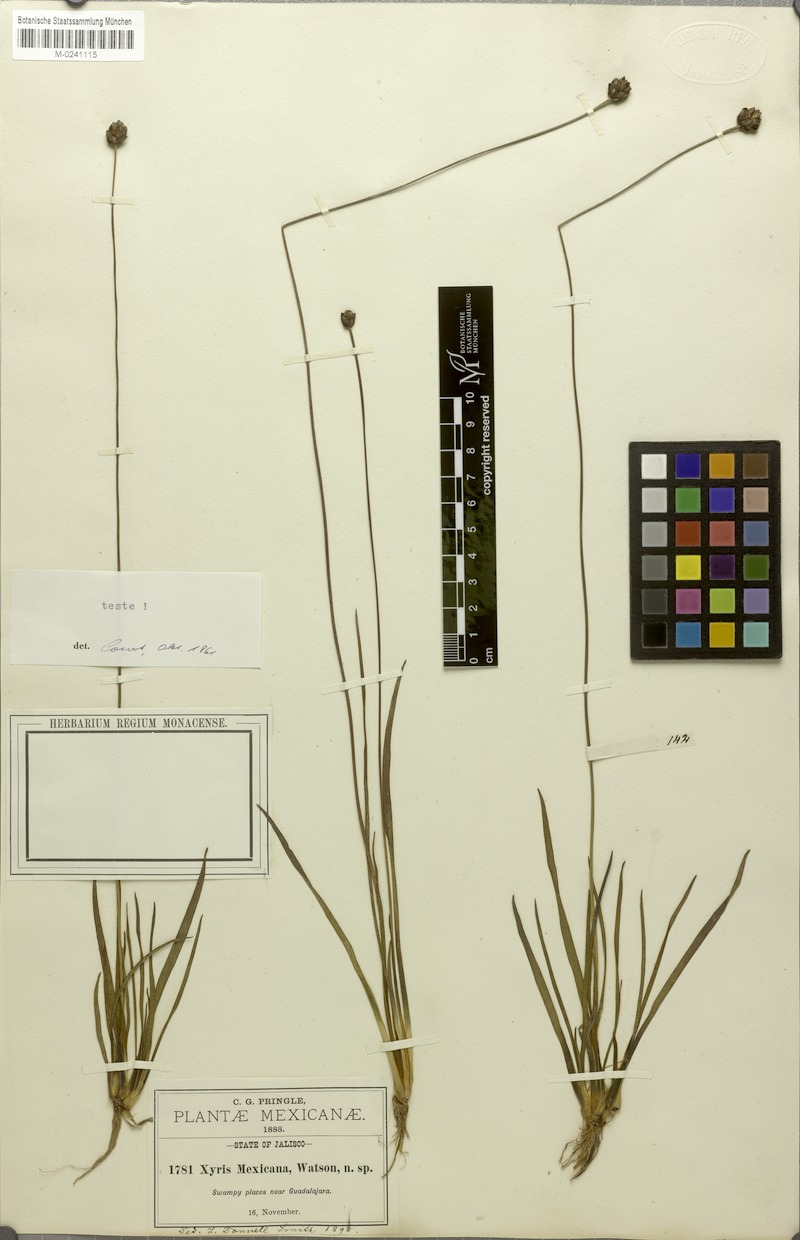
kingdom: Plantae
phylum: Tracheophyta
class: Liliopsida
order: Poales
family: Xyridaceae
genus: Xyris
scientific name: Xyris mexicana
